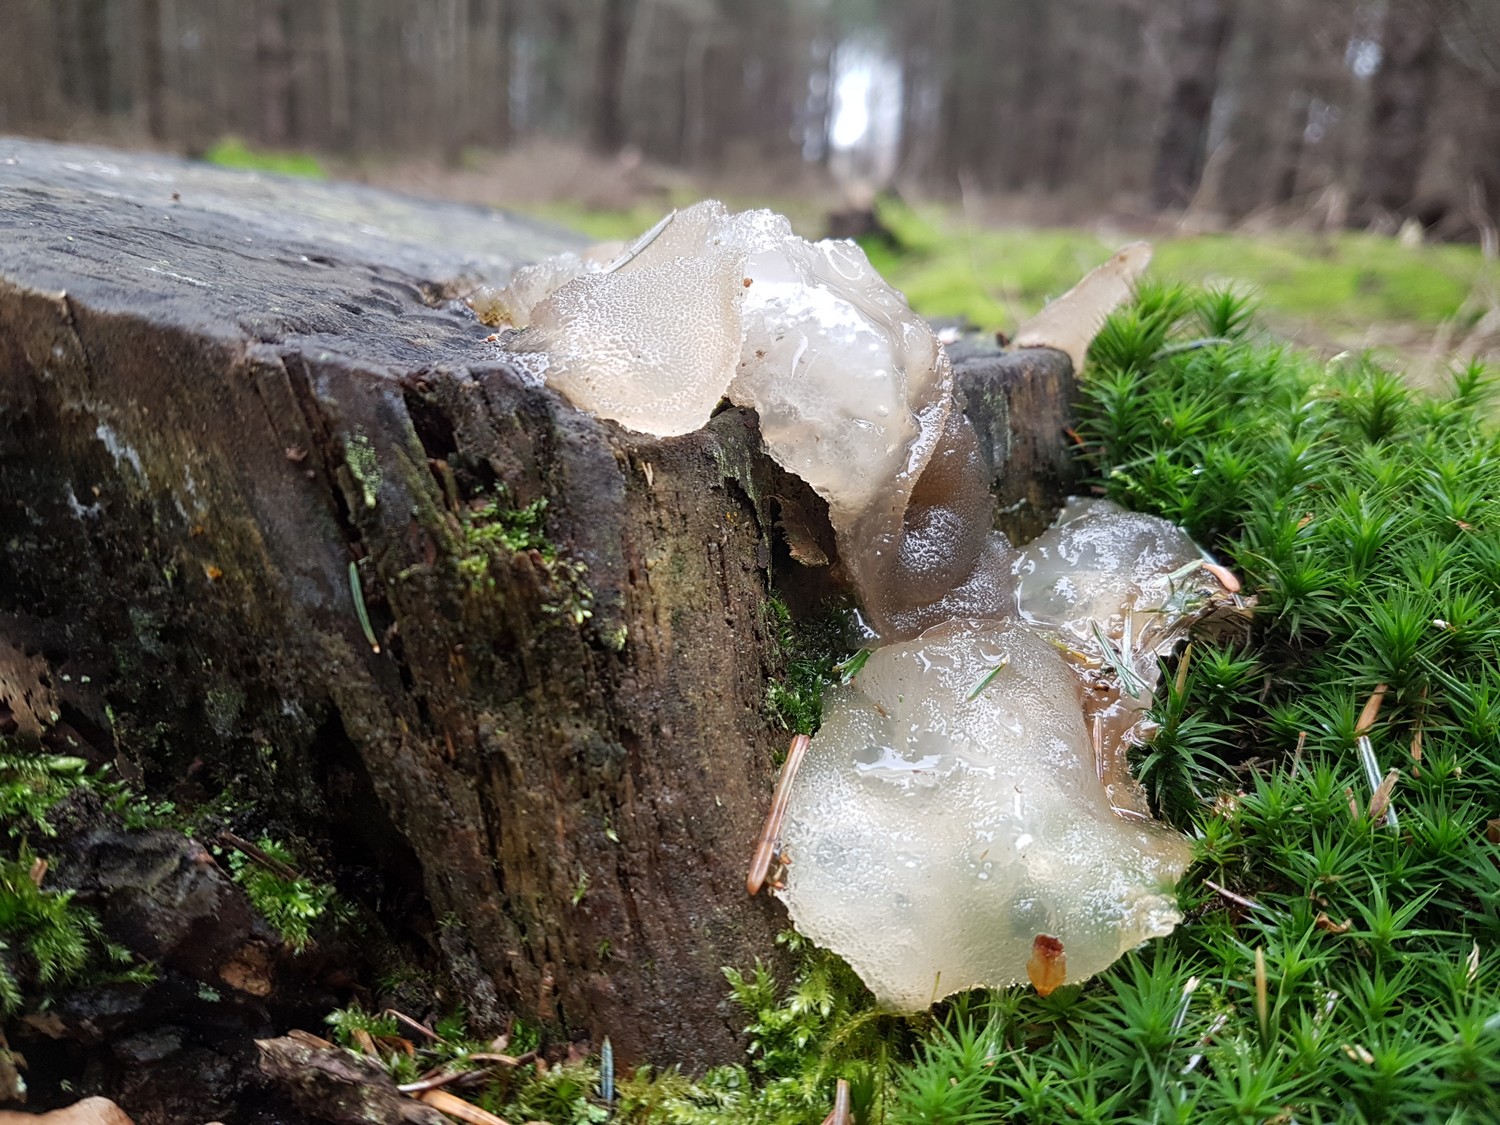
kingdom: Fungi
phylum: Basidiomycota
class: Agaricomycetes
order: Auriculariales
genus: Pseudohydnum
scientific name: Pseudohydnum gelatinosum
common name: bævretand
